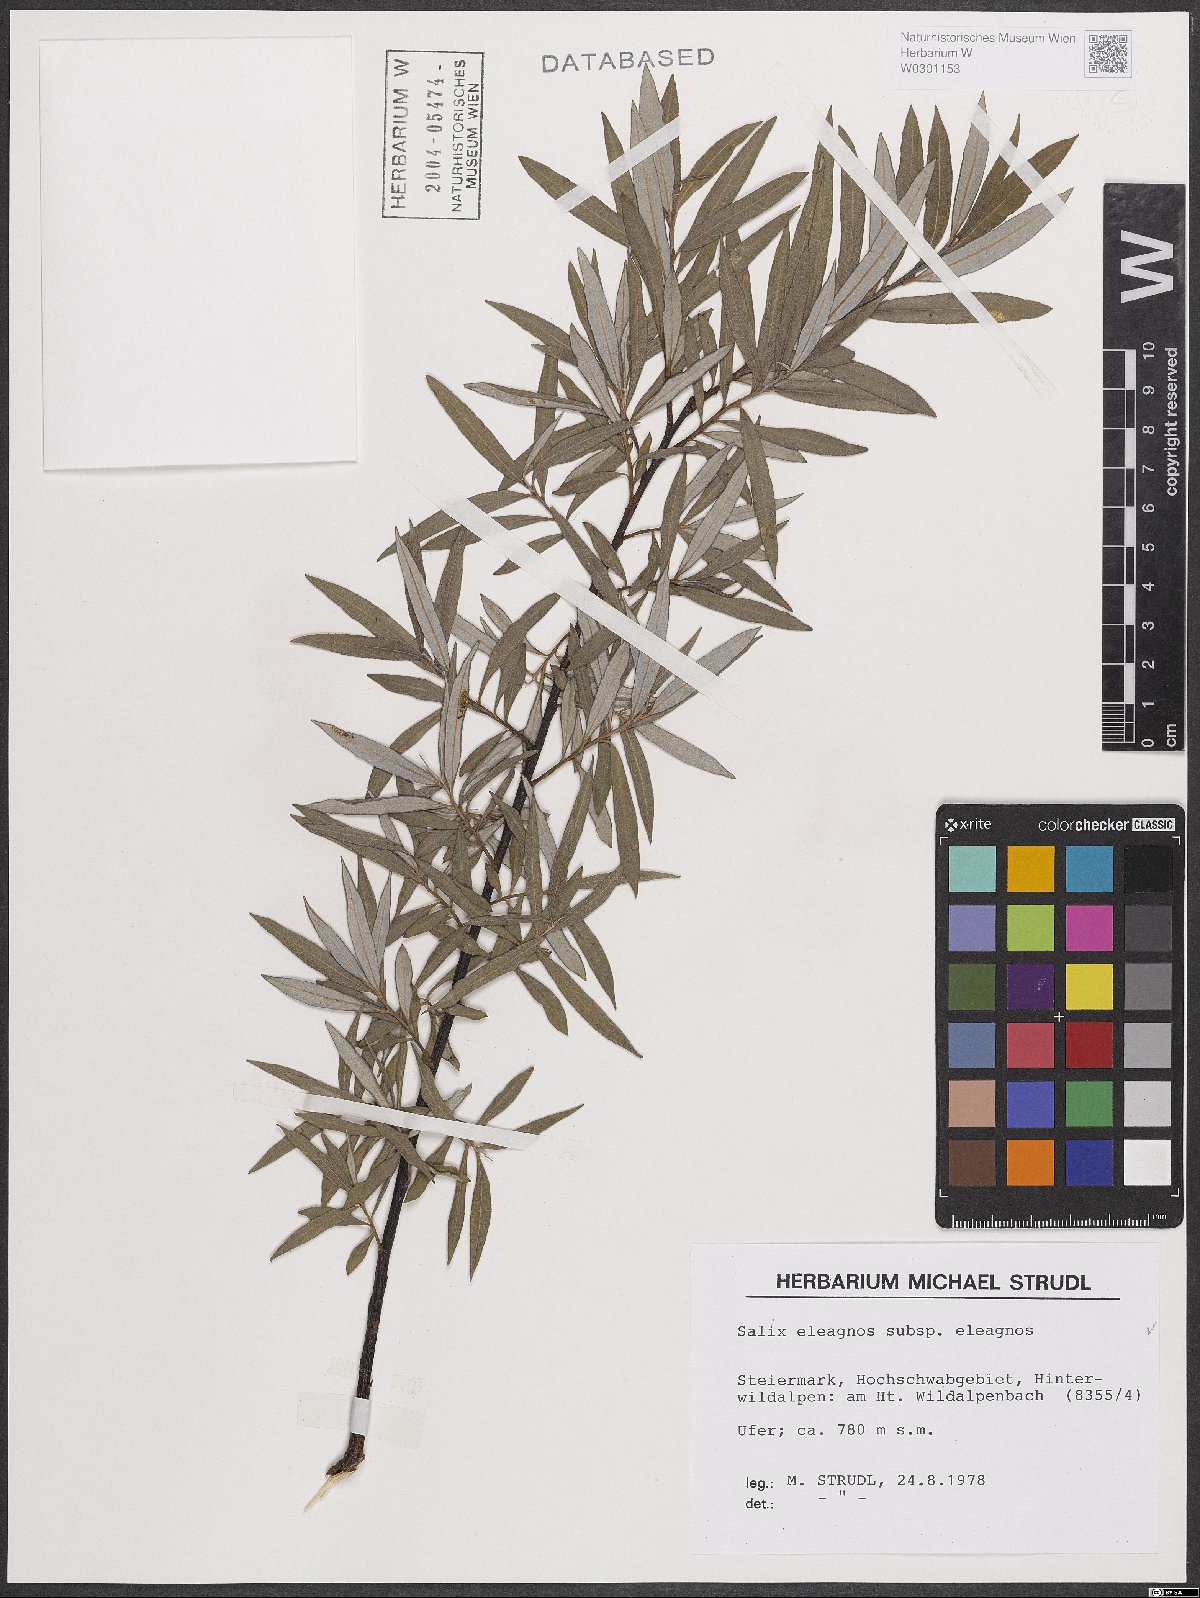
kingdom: Plantae
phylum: Tracheophyta
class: Magnoliopsida
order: Malpighiales
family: Salicaceae
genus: Salix
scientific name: Salix eleagnos
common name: Elaeagnus willow
